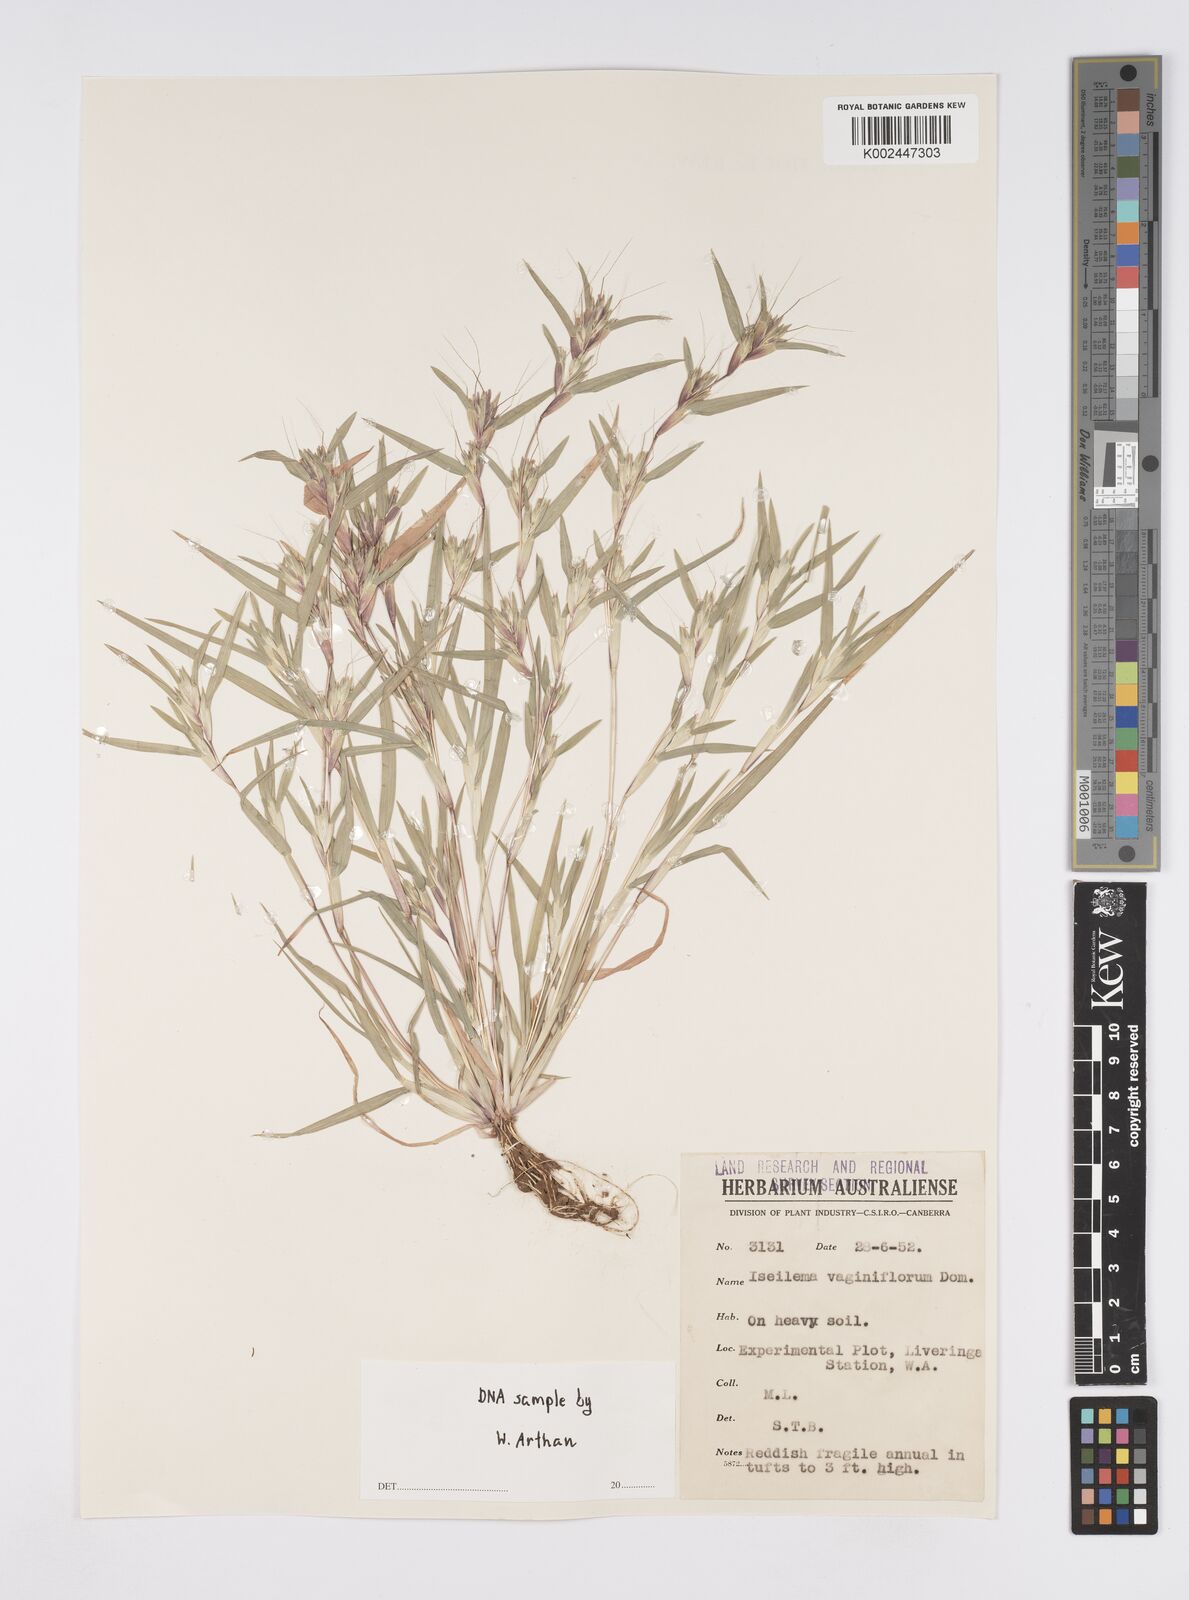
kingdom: Plantae
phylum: Tracheophyta
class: Liliopsida
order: Poales
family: Poaceae
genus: Iseilema
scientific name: Iseilema vaginiflorum
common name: Red flinders grass
